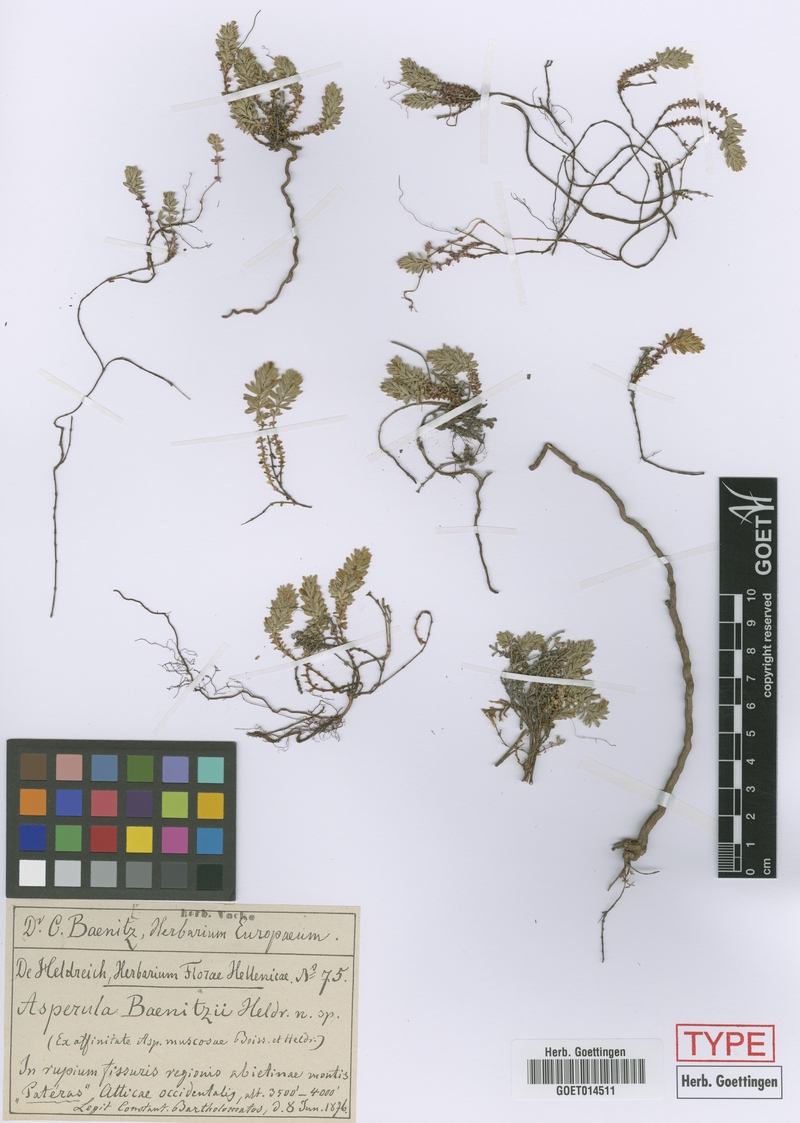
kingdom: Plantae
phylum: Tracheophyta
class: Magnoliopsida
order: Gentianales
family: Rubiaceae
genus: Thliphthisa
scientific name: Thliphthisa baenitzii
